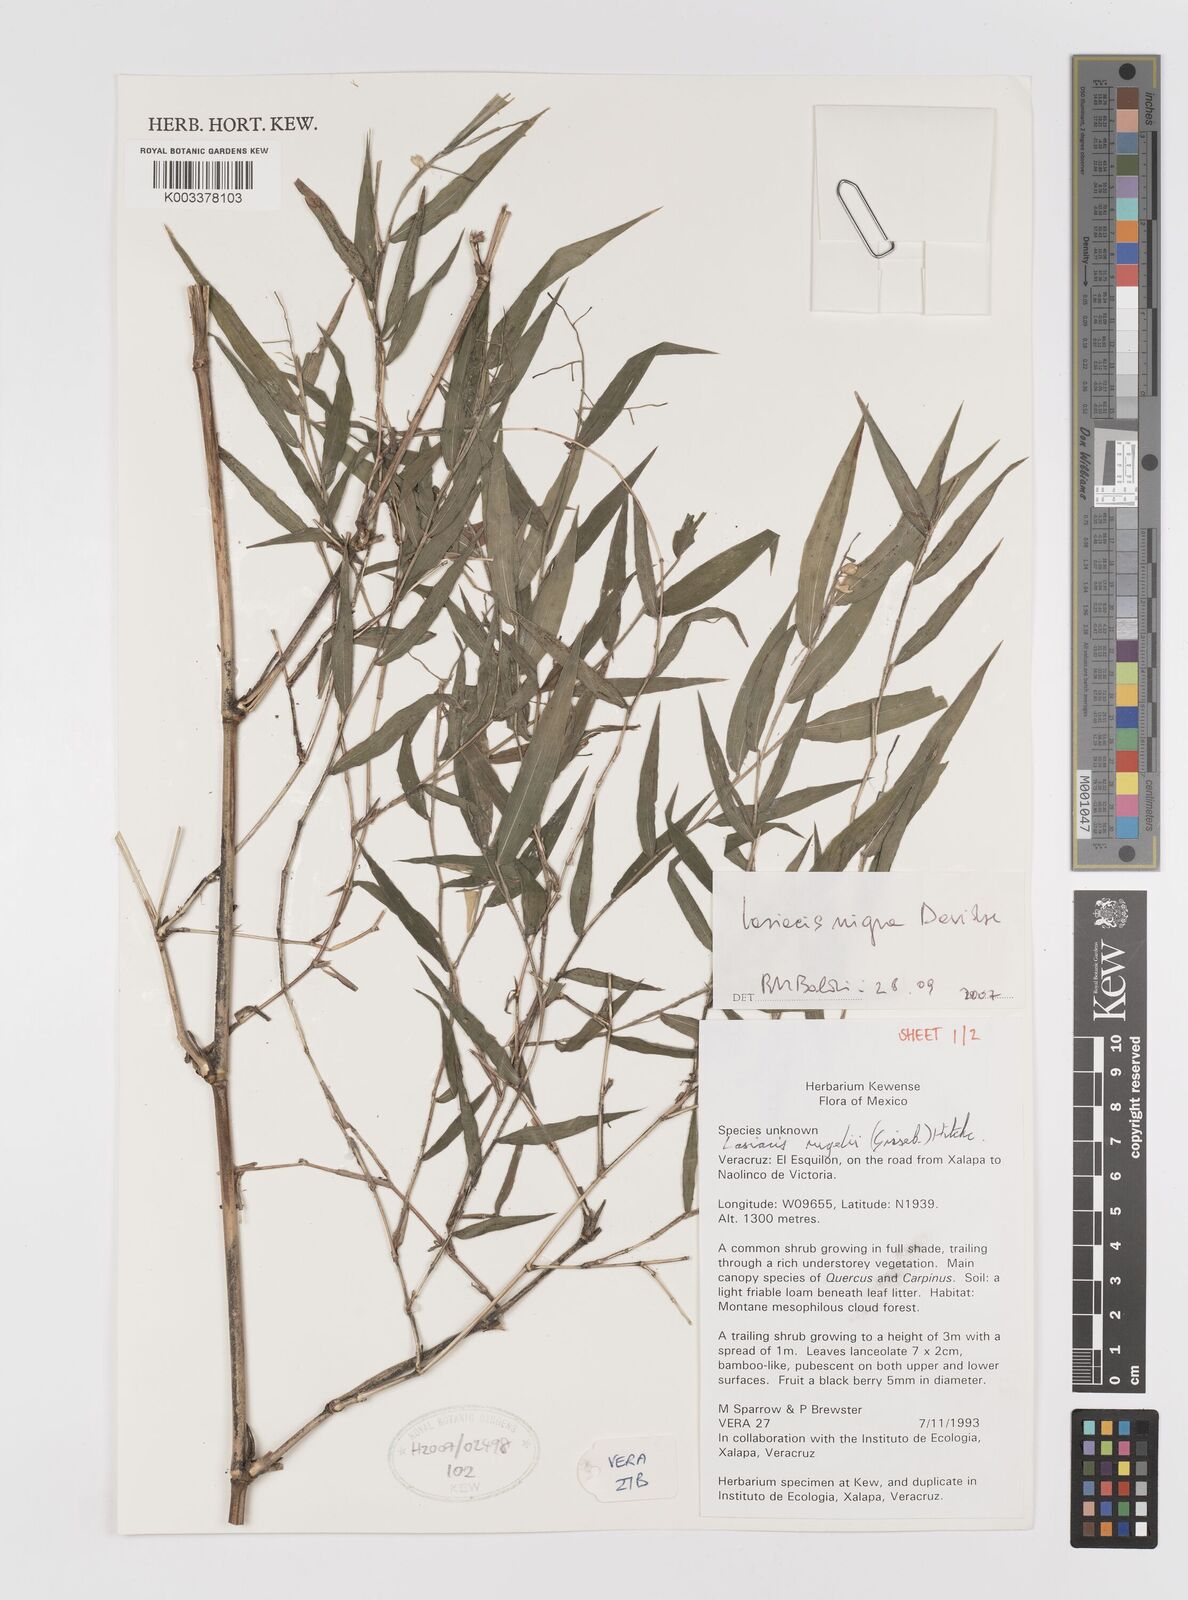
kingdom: Plantae
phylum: Tracheophyta
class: Liliopsida
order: Poales
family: Poaceae
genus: Lasiacis
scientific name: Lasiacis nigra
